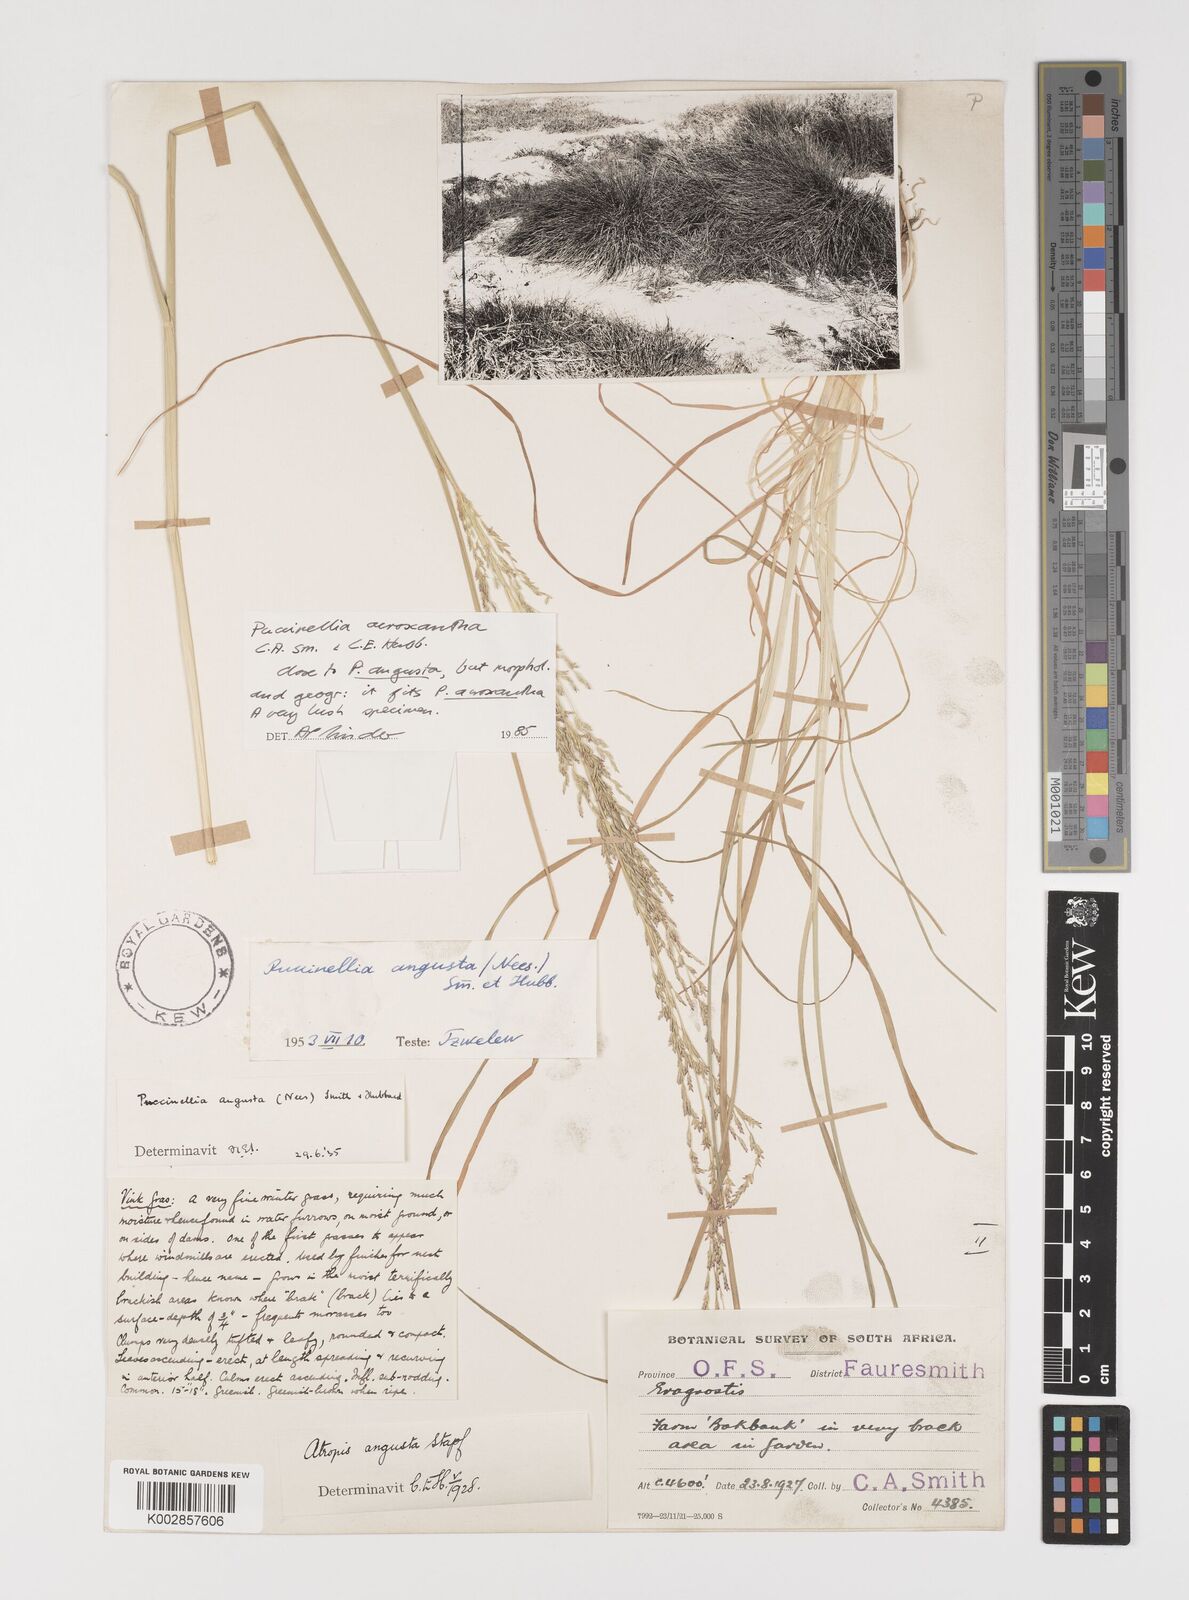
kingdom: Plantae
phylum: Tracheophyta
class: Liliopsida
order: Poales
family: Poaceae
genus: Puccinellia
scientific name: Puccinellia acroxantha
